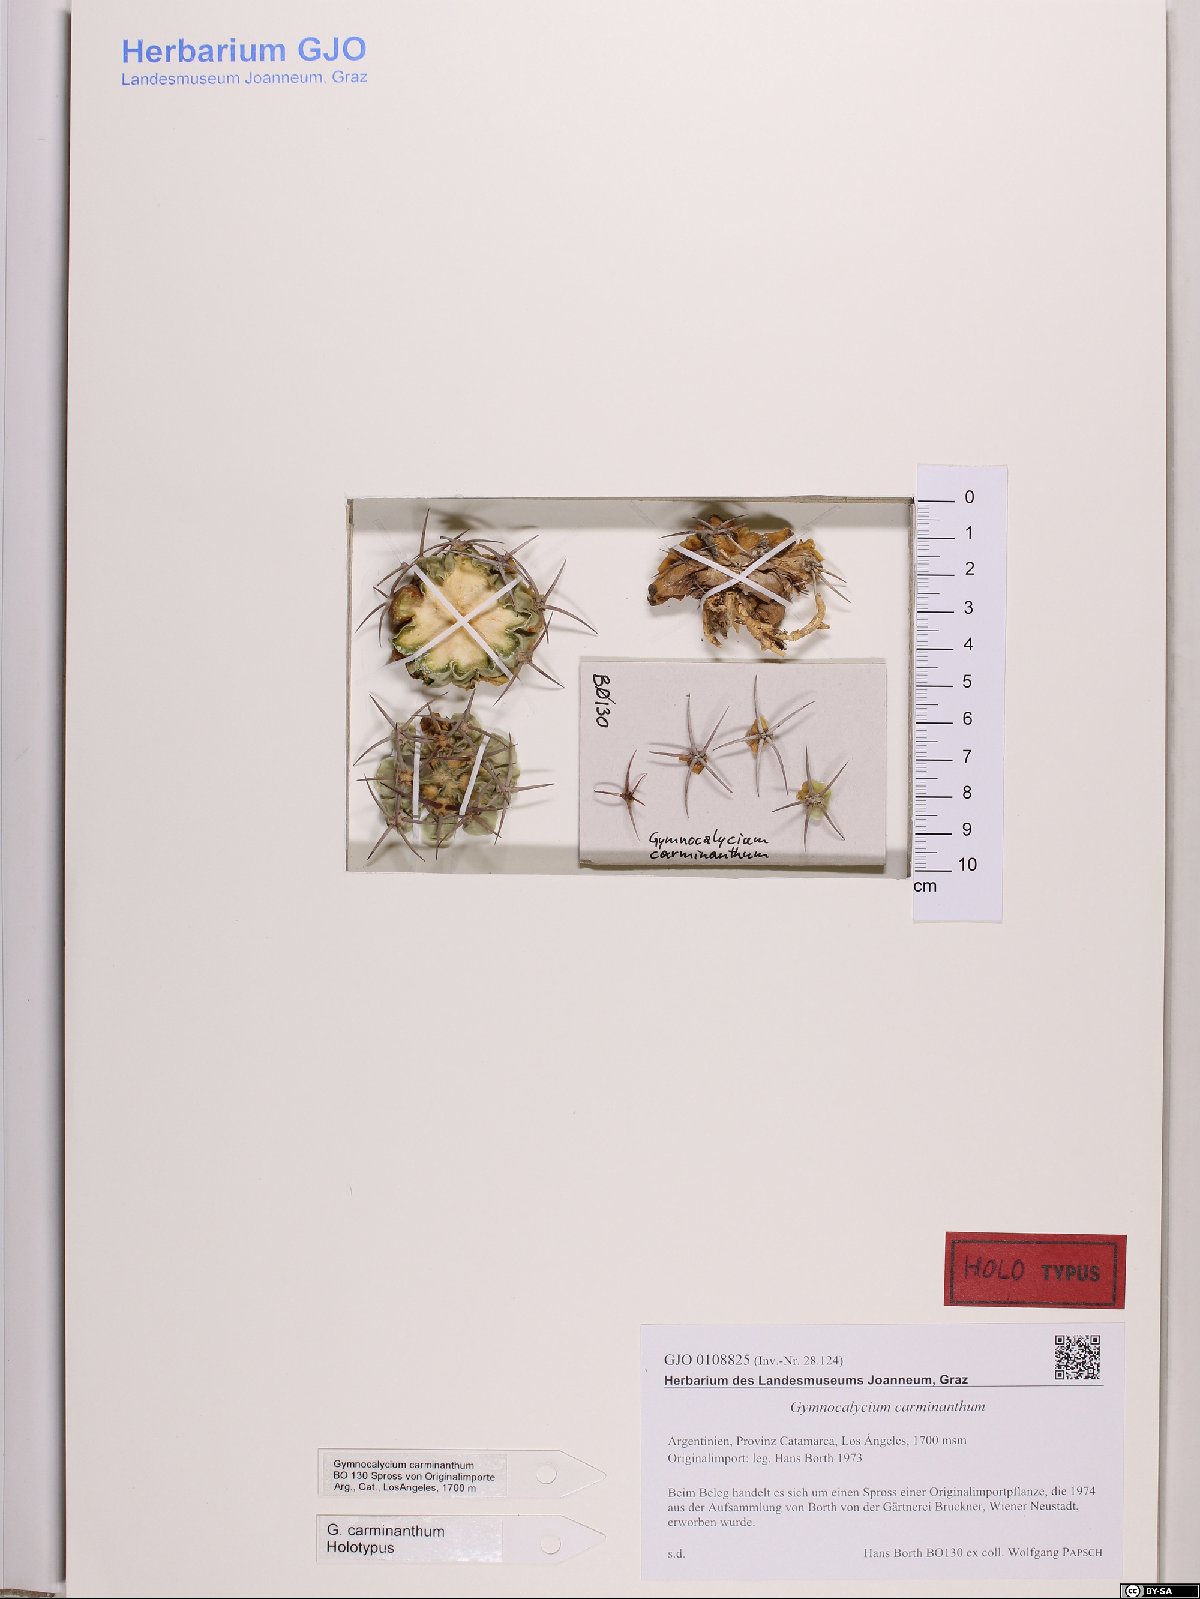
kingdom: Plantae
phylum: Tracheophyta
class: Magnoliopsida
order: Caryophyllales
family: Cactaceae
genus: Gymnocalycium
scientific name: Gymnocalycium oenanthemum
